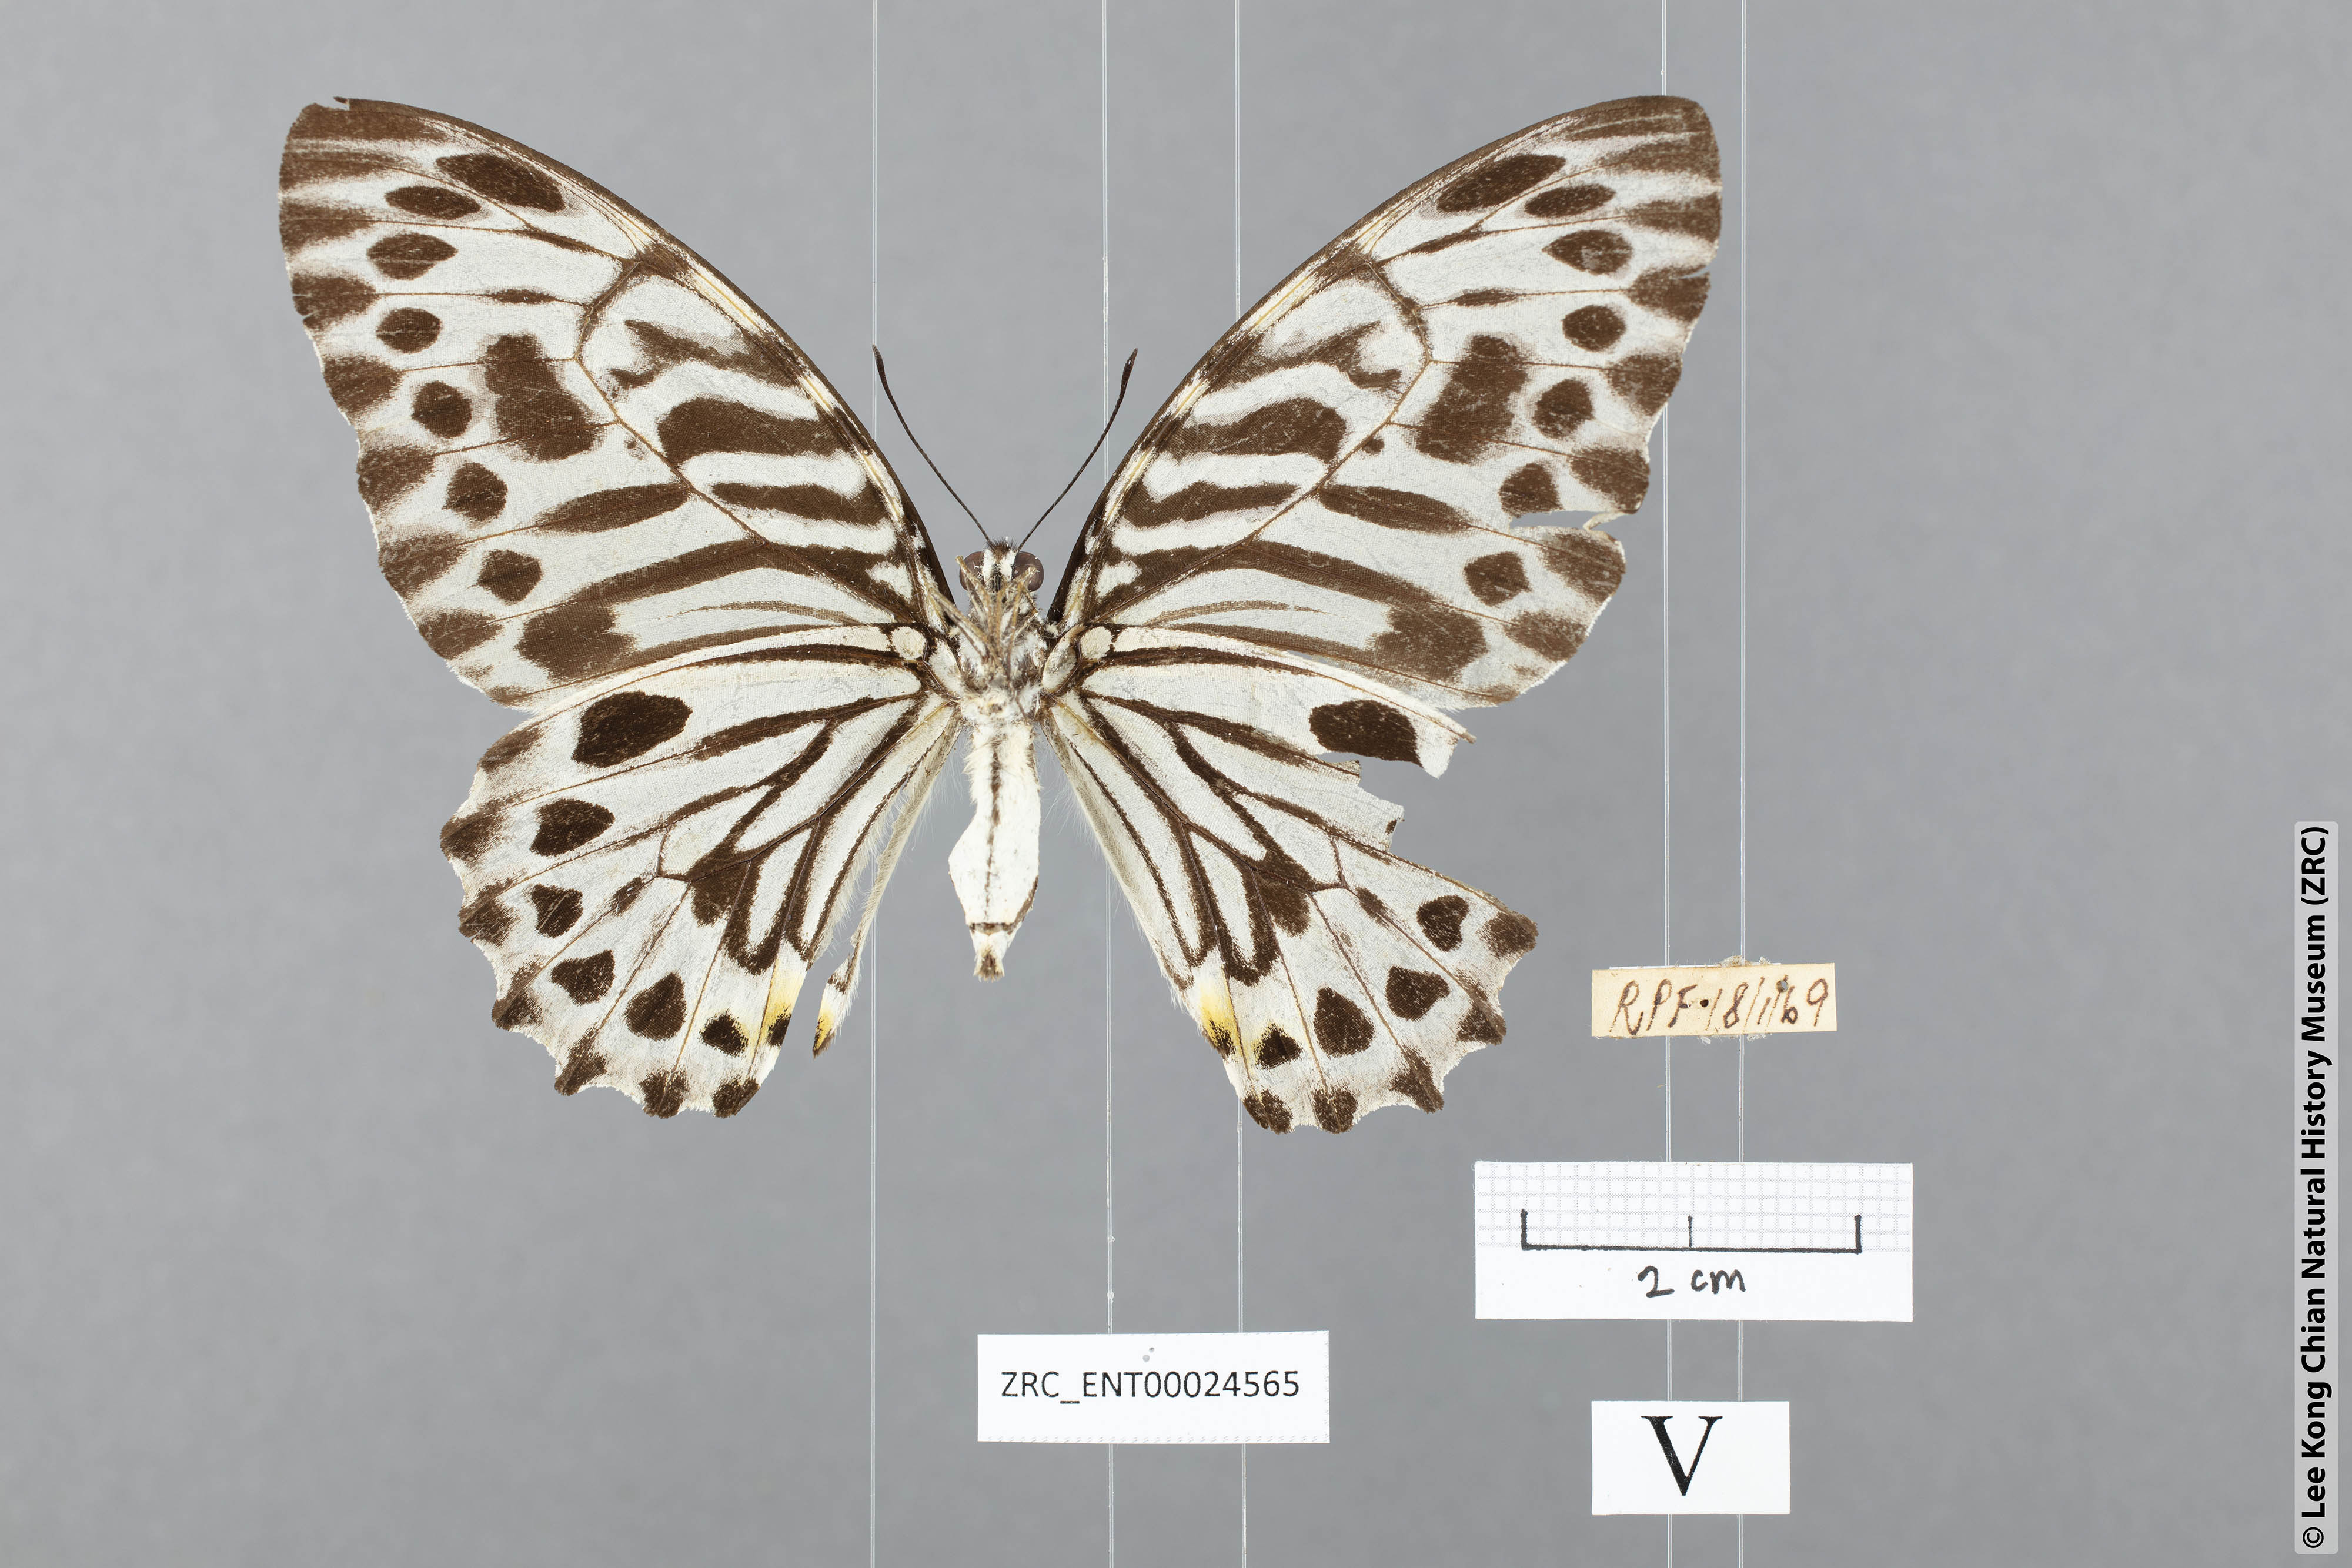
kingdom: Animalia
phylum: Arthropoda
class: Insecta
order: Lepidoptera
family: Papilionidae
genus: Graphium
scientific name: Graphium delesserti
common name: Malayan zebra
